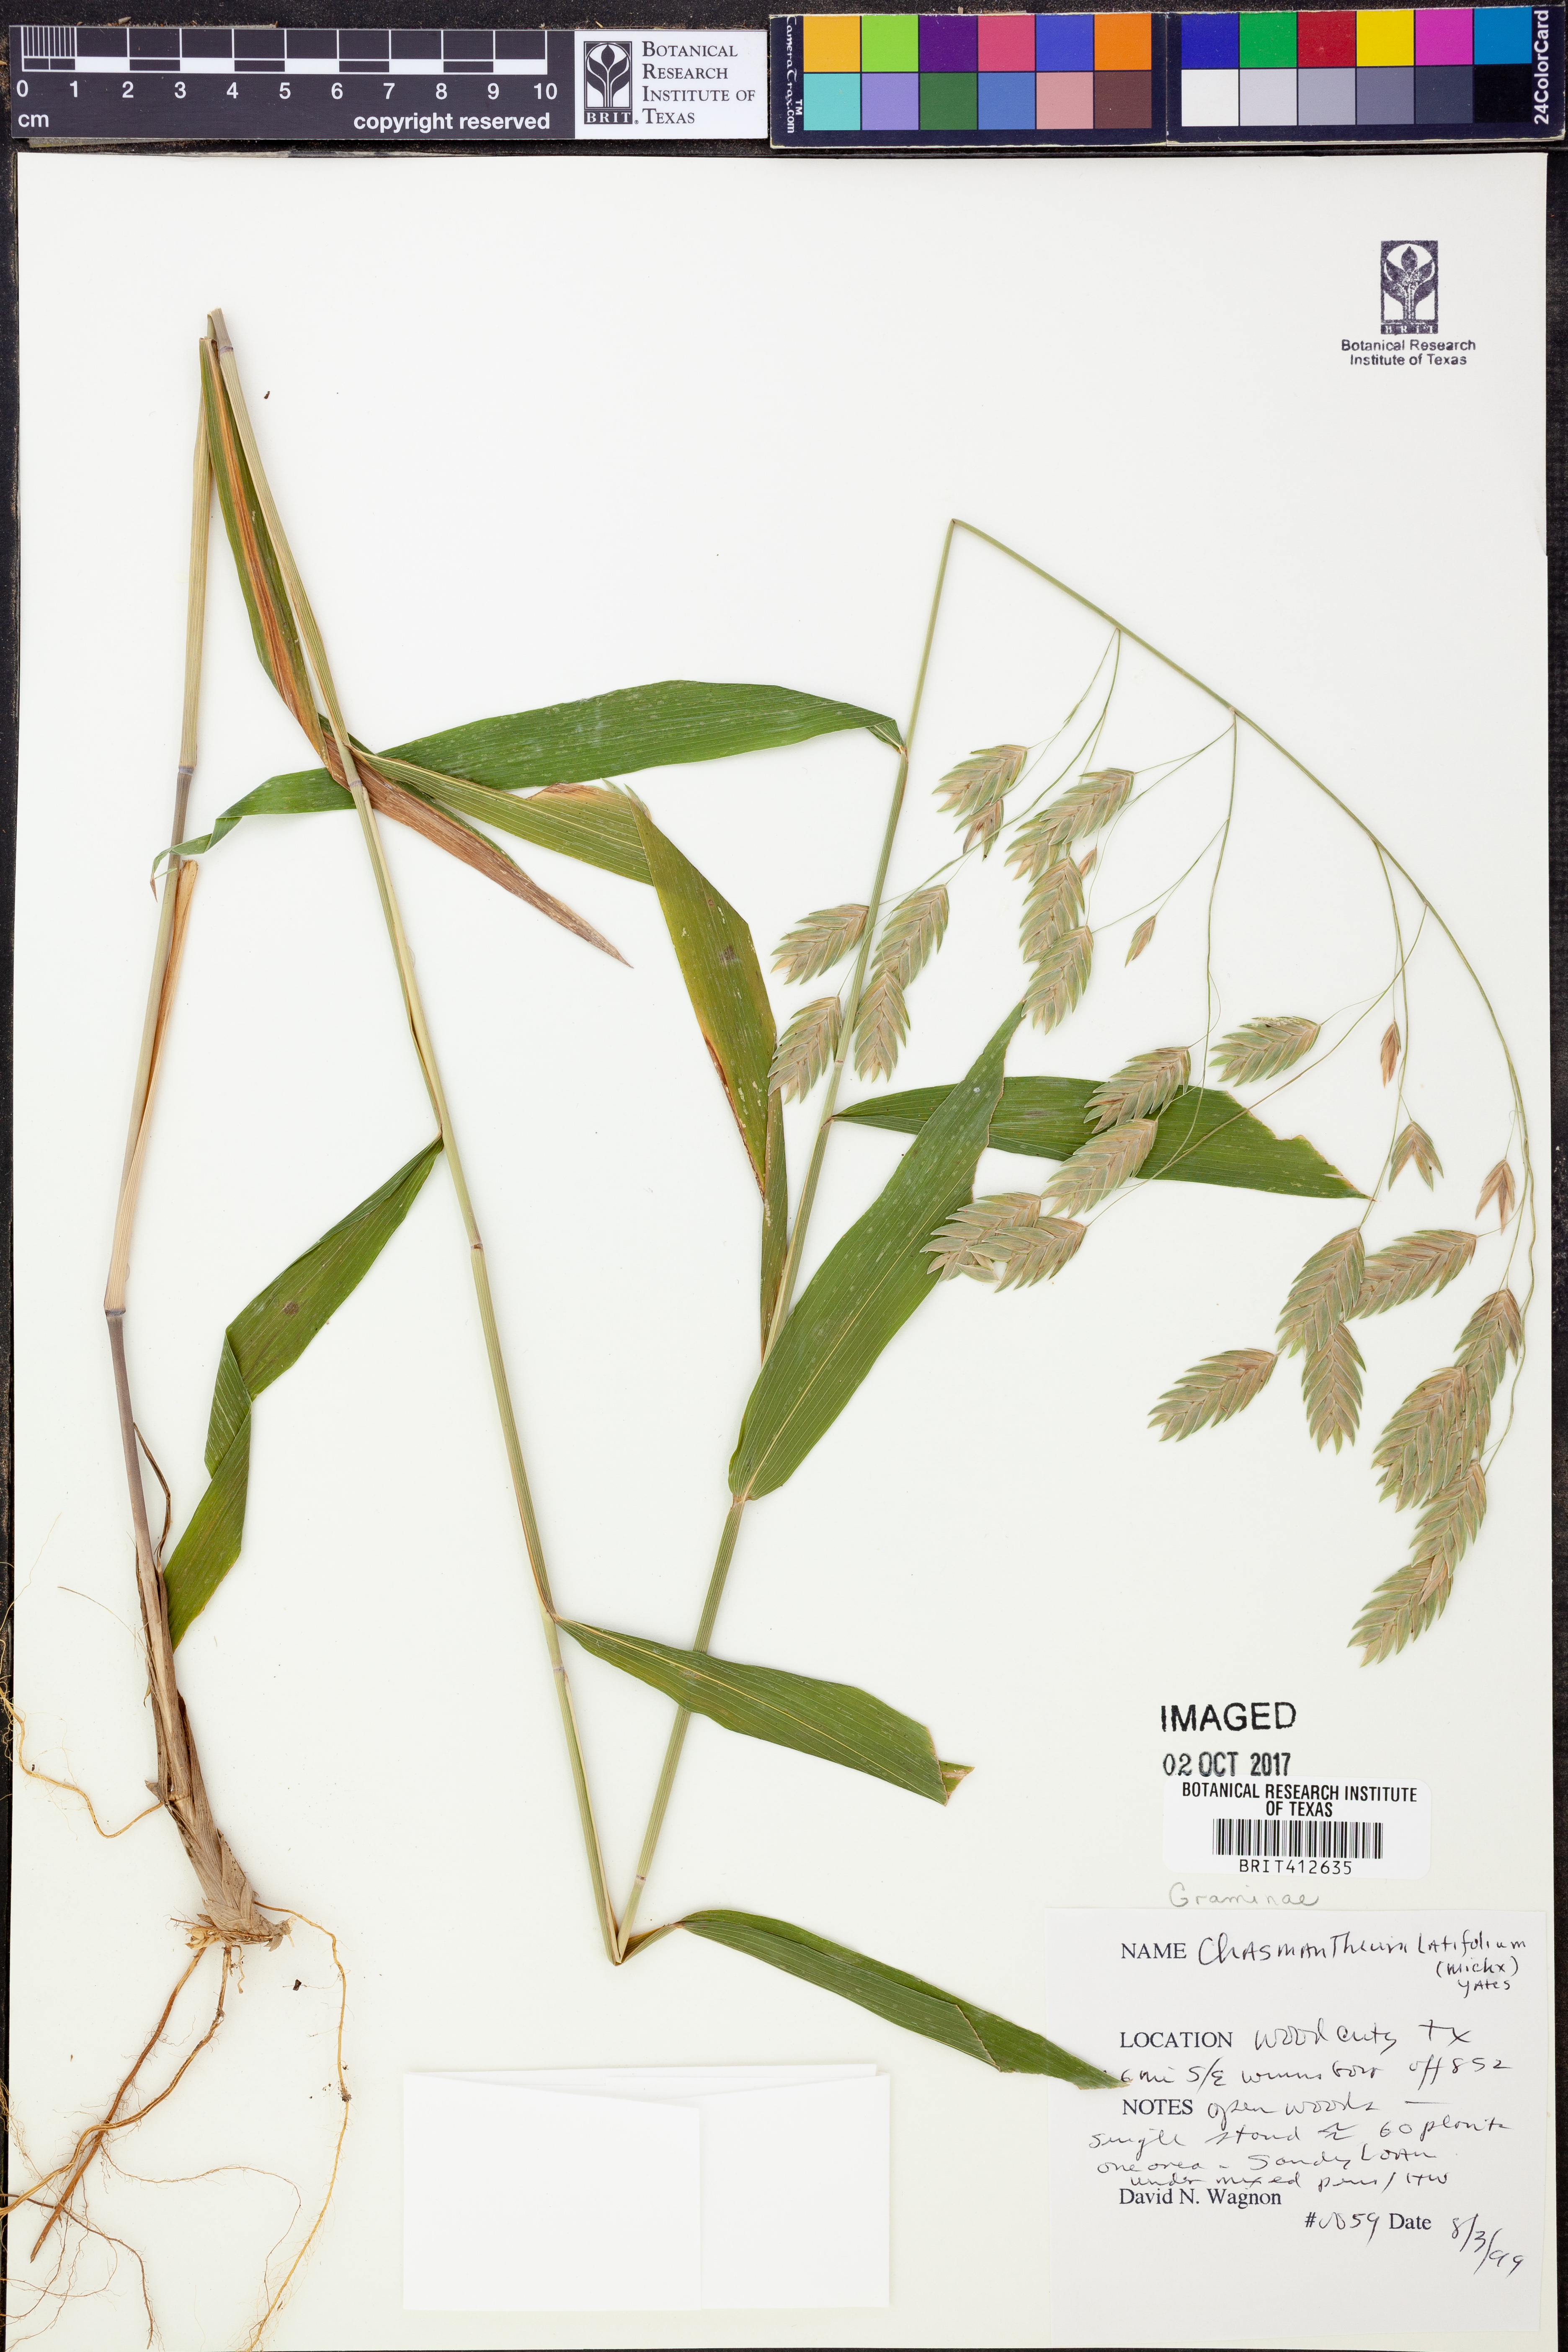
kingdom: Plantae
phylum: Tracheophyta
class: Liliopsida
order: Poales
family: Poaceae
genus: Chasmanthium
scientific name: Chasmanthium latifolium
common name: Broad-leaved chasmanthium
